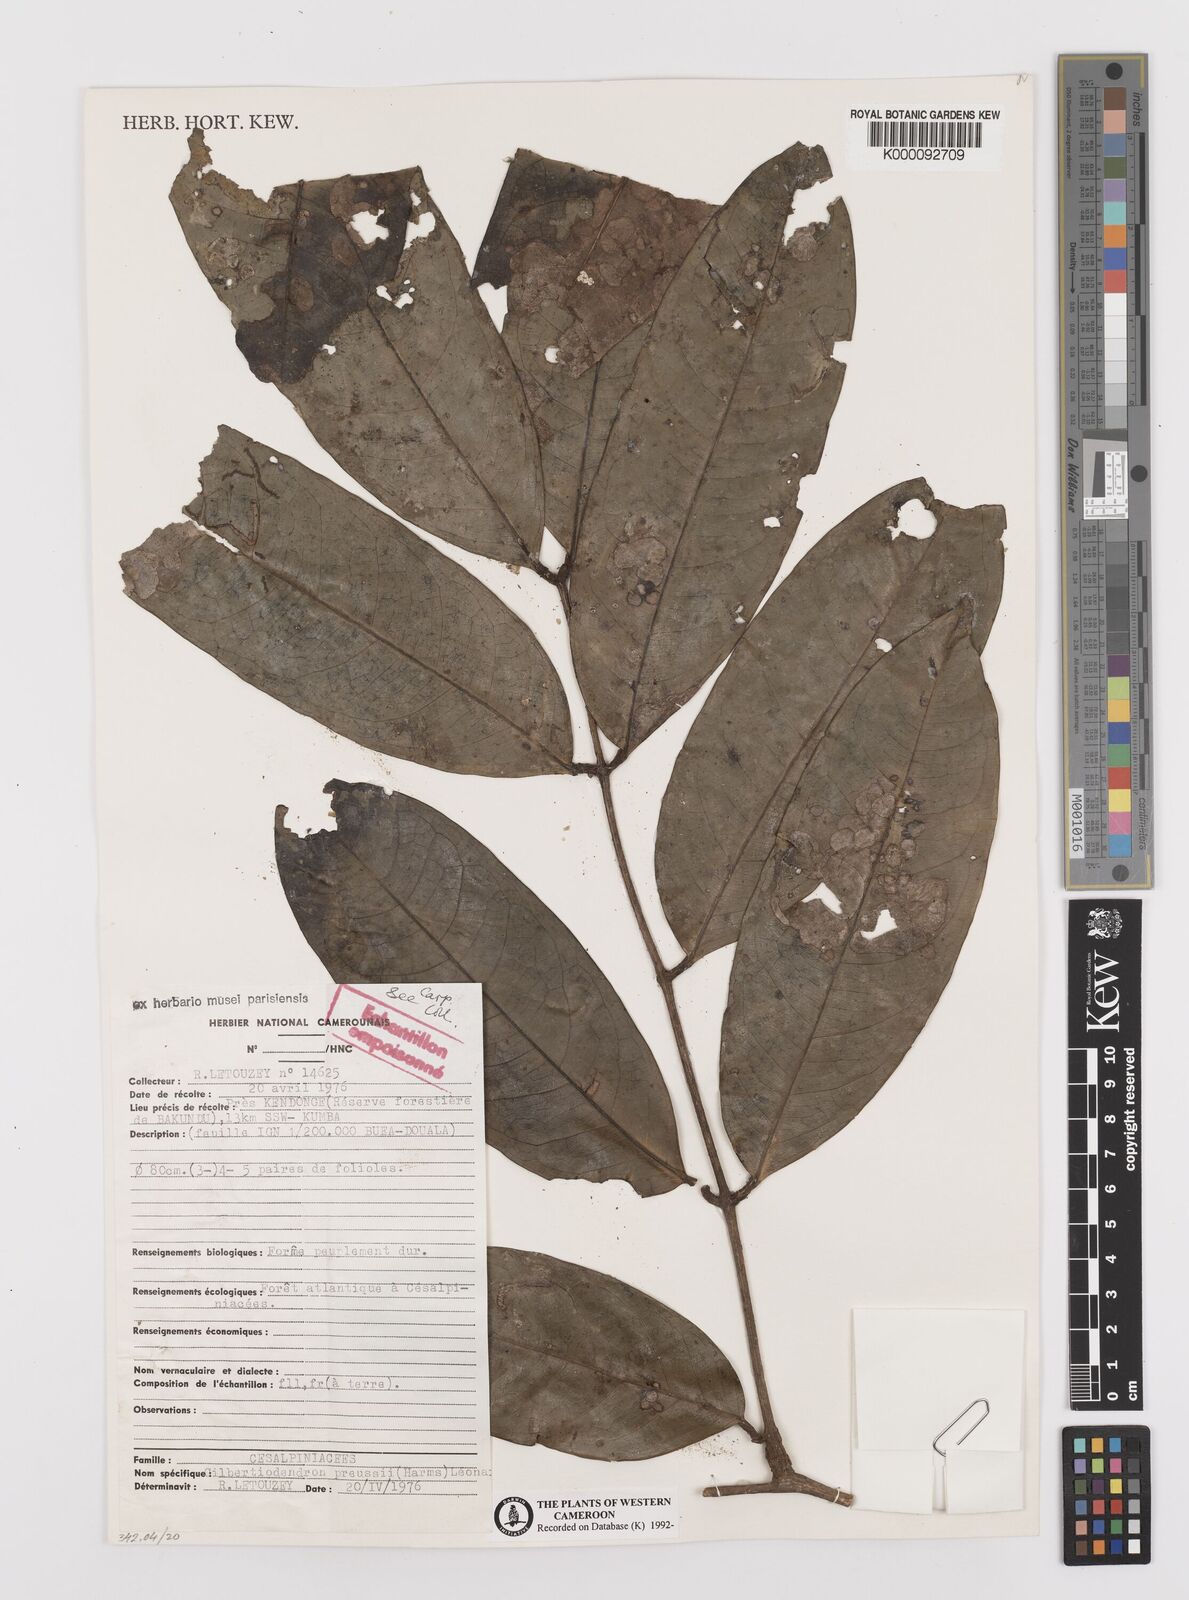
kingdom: Plantae
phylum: Tracheophyta
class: Magnoliopsida
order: Fabales
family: Fabaceae
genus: Gilbertiodendron
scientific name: Gilbertiodendron
